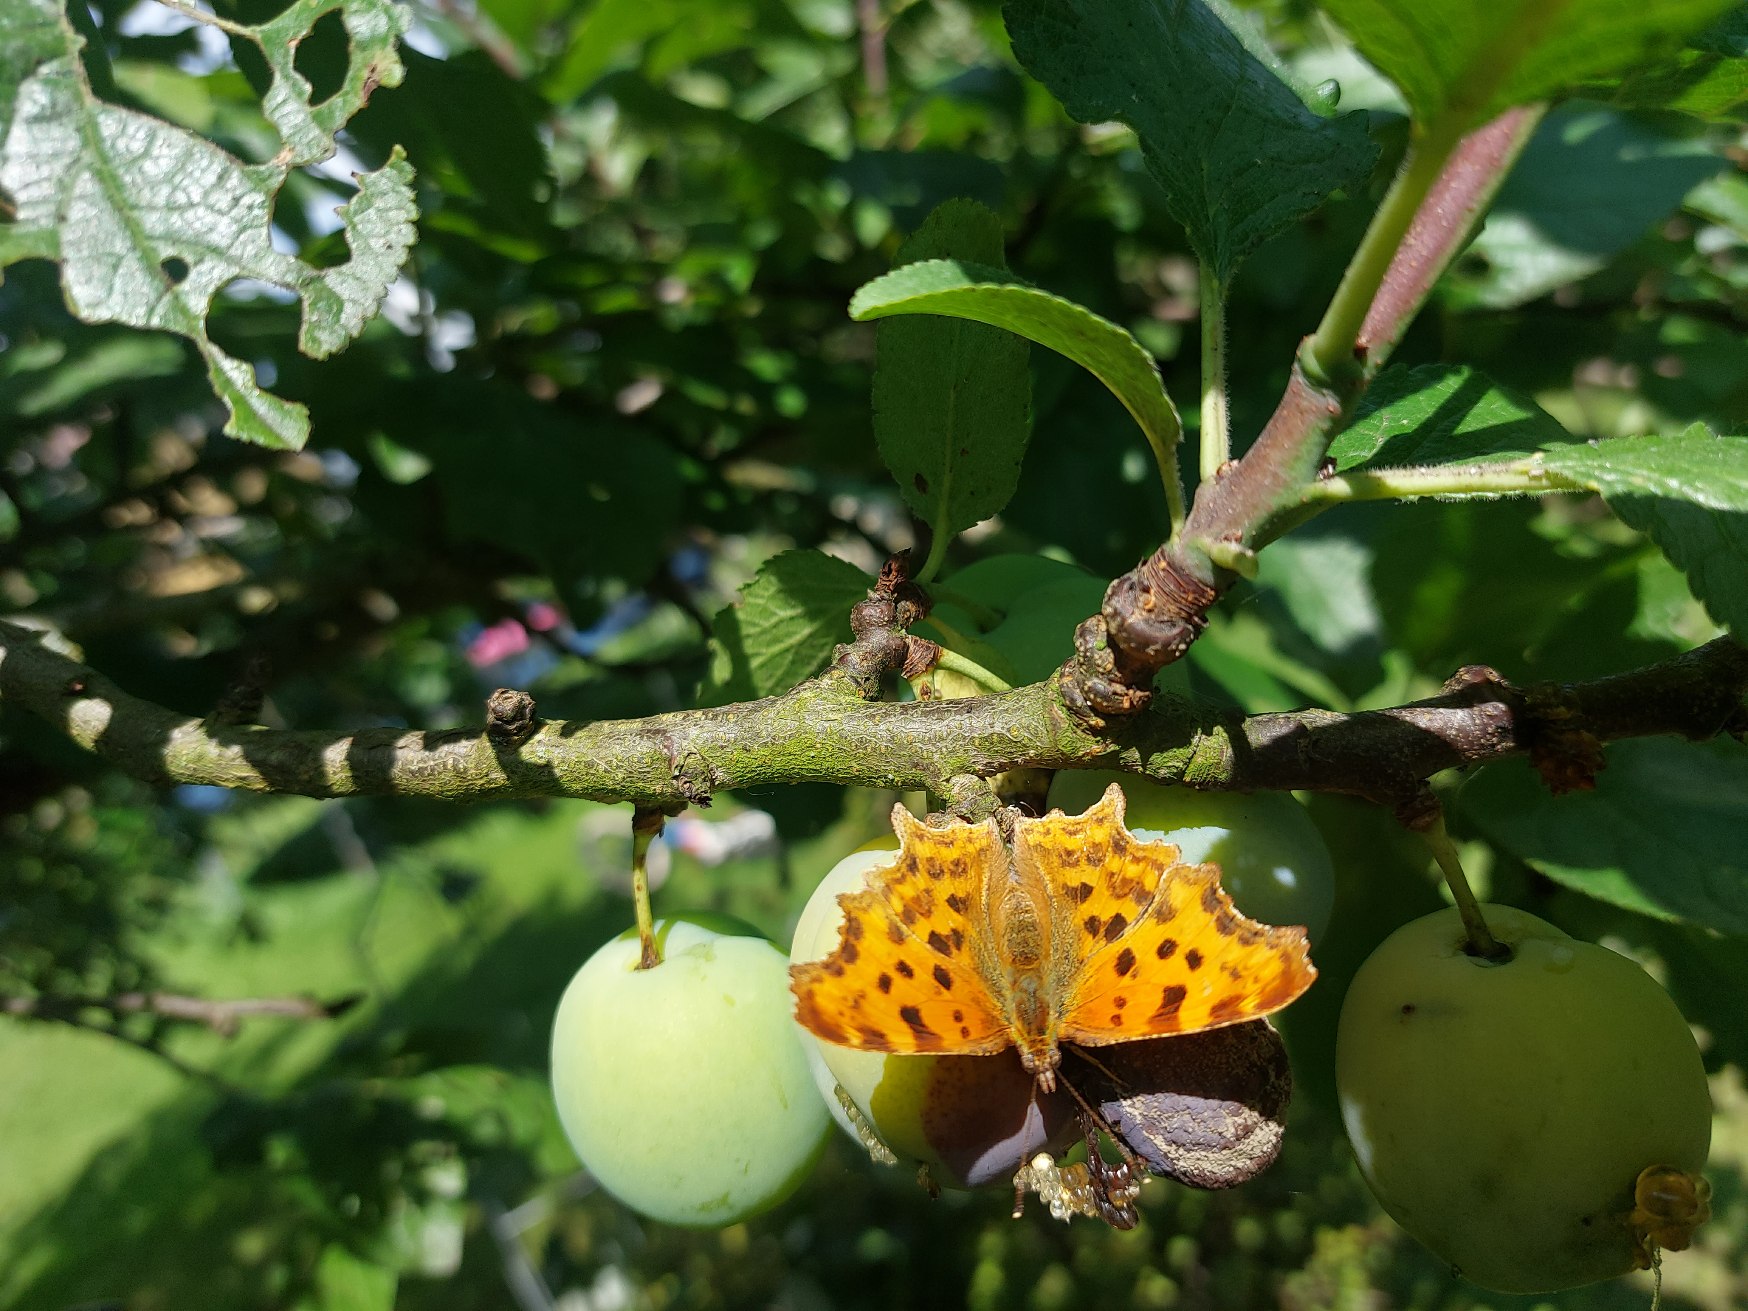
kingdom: Animalia
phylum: Arthropoda
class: Insecta
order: Lepidoptera
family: Nymphalidae
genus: Polygonia
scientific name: Polygonia c-album
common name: Det hvide C
